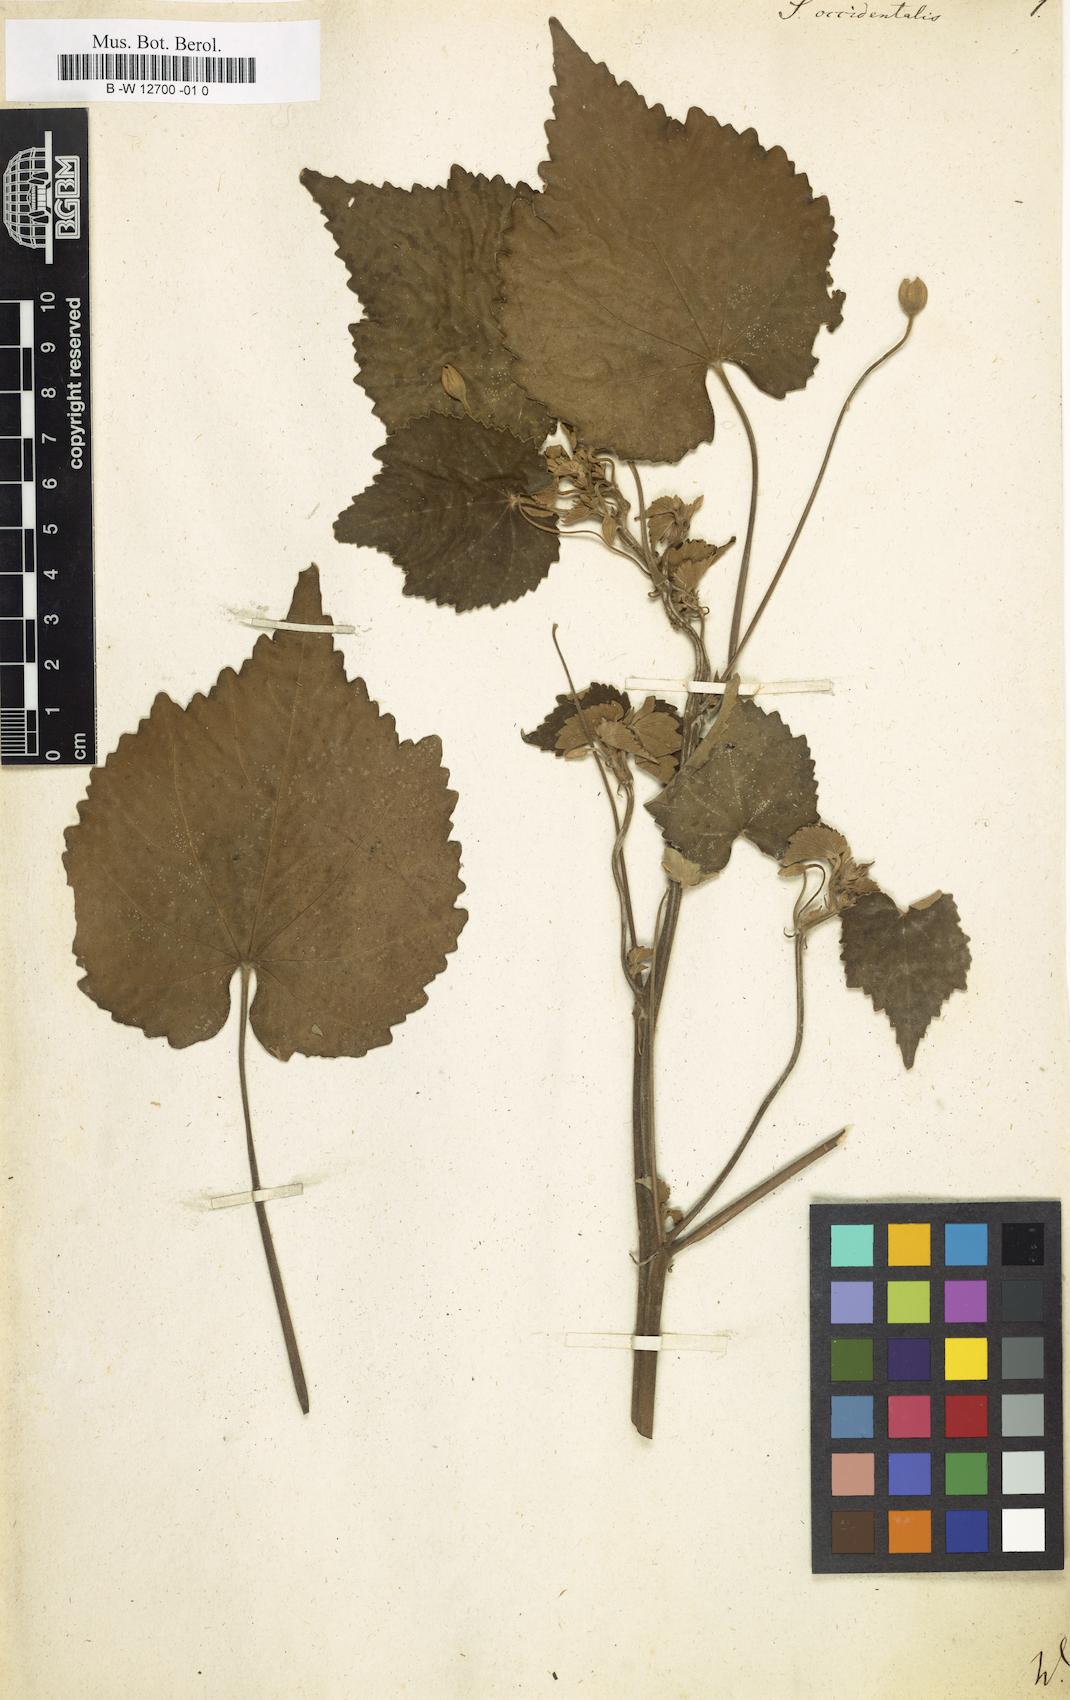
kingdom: Plantae
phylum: Tracheophyta
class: Magnoliopsida
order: Malvales
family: Malvaceae
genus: Gaya
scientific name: Gaya occidentalis
